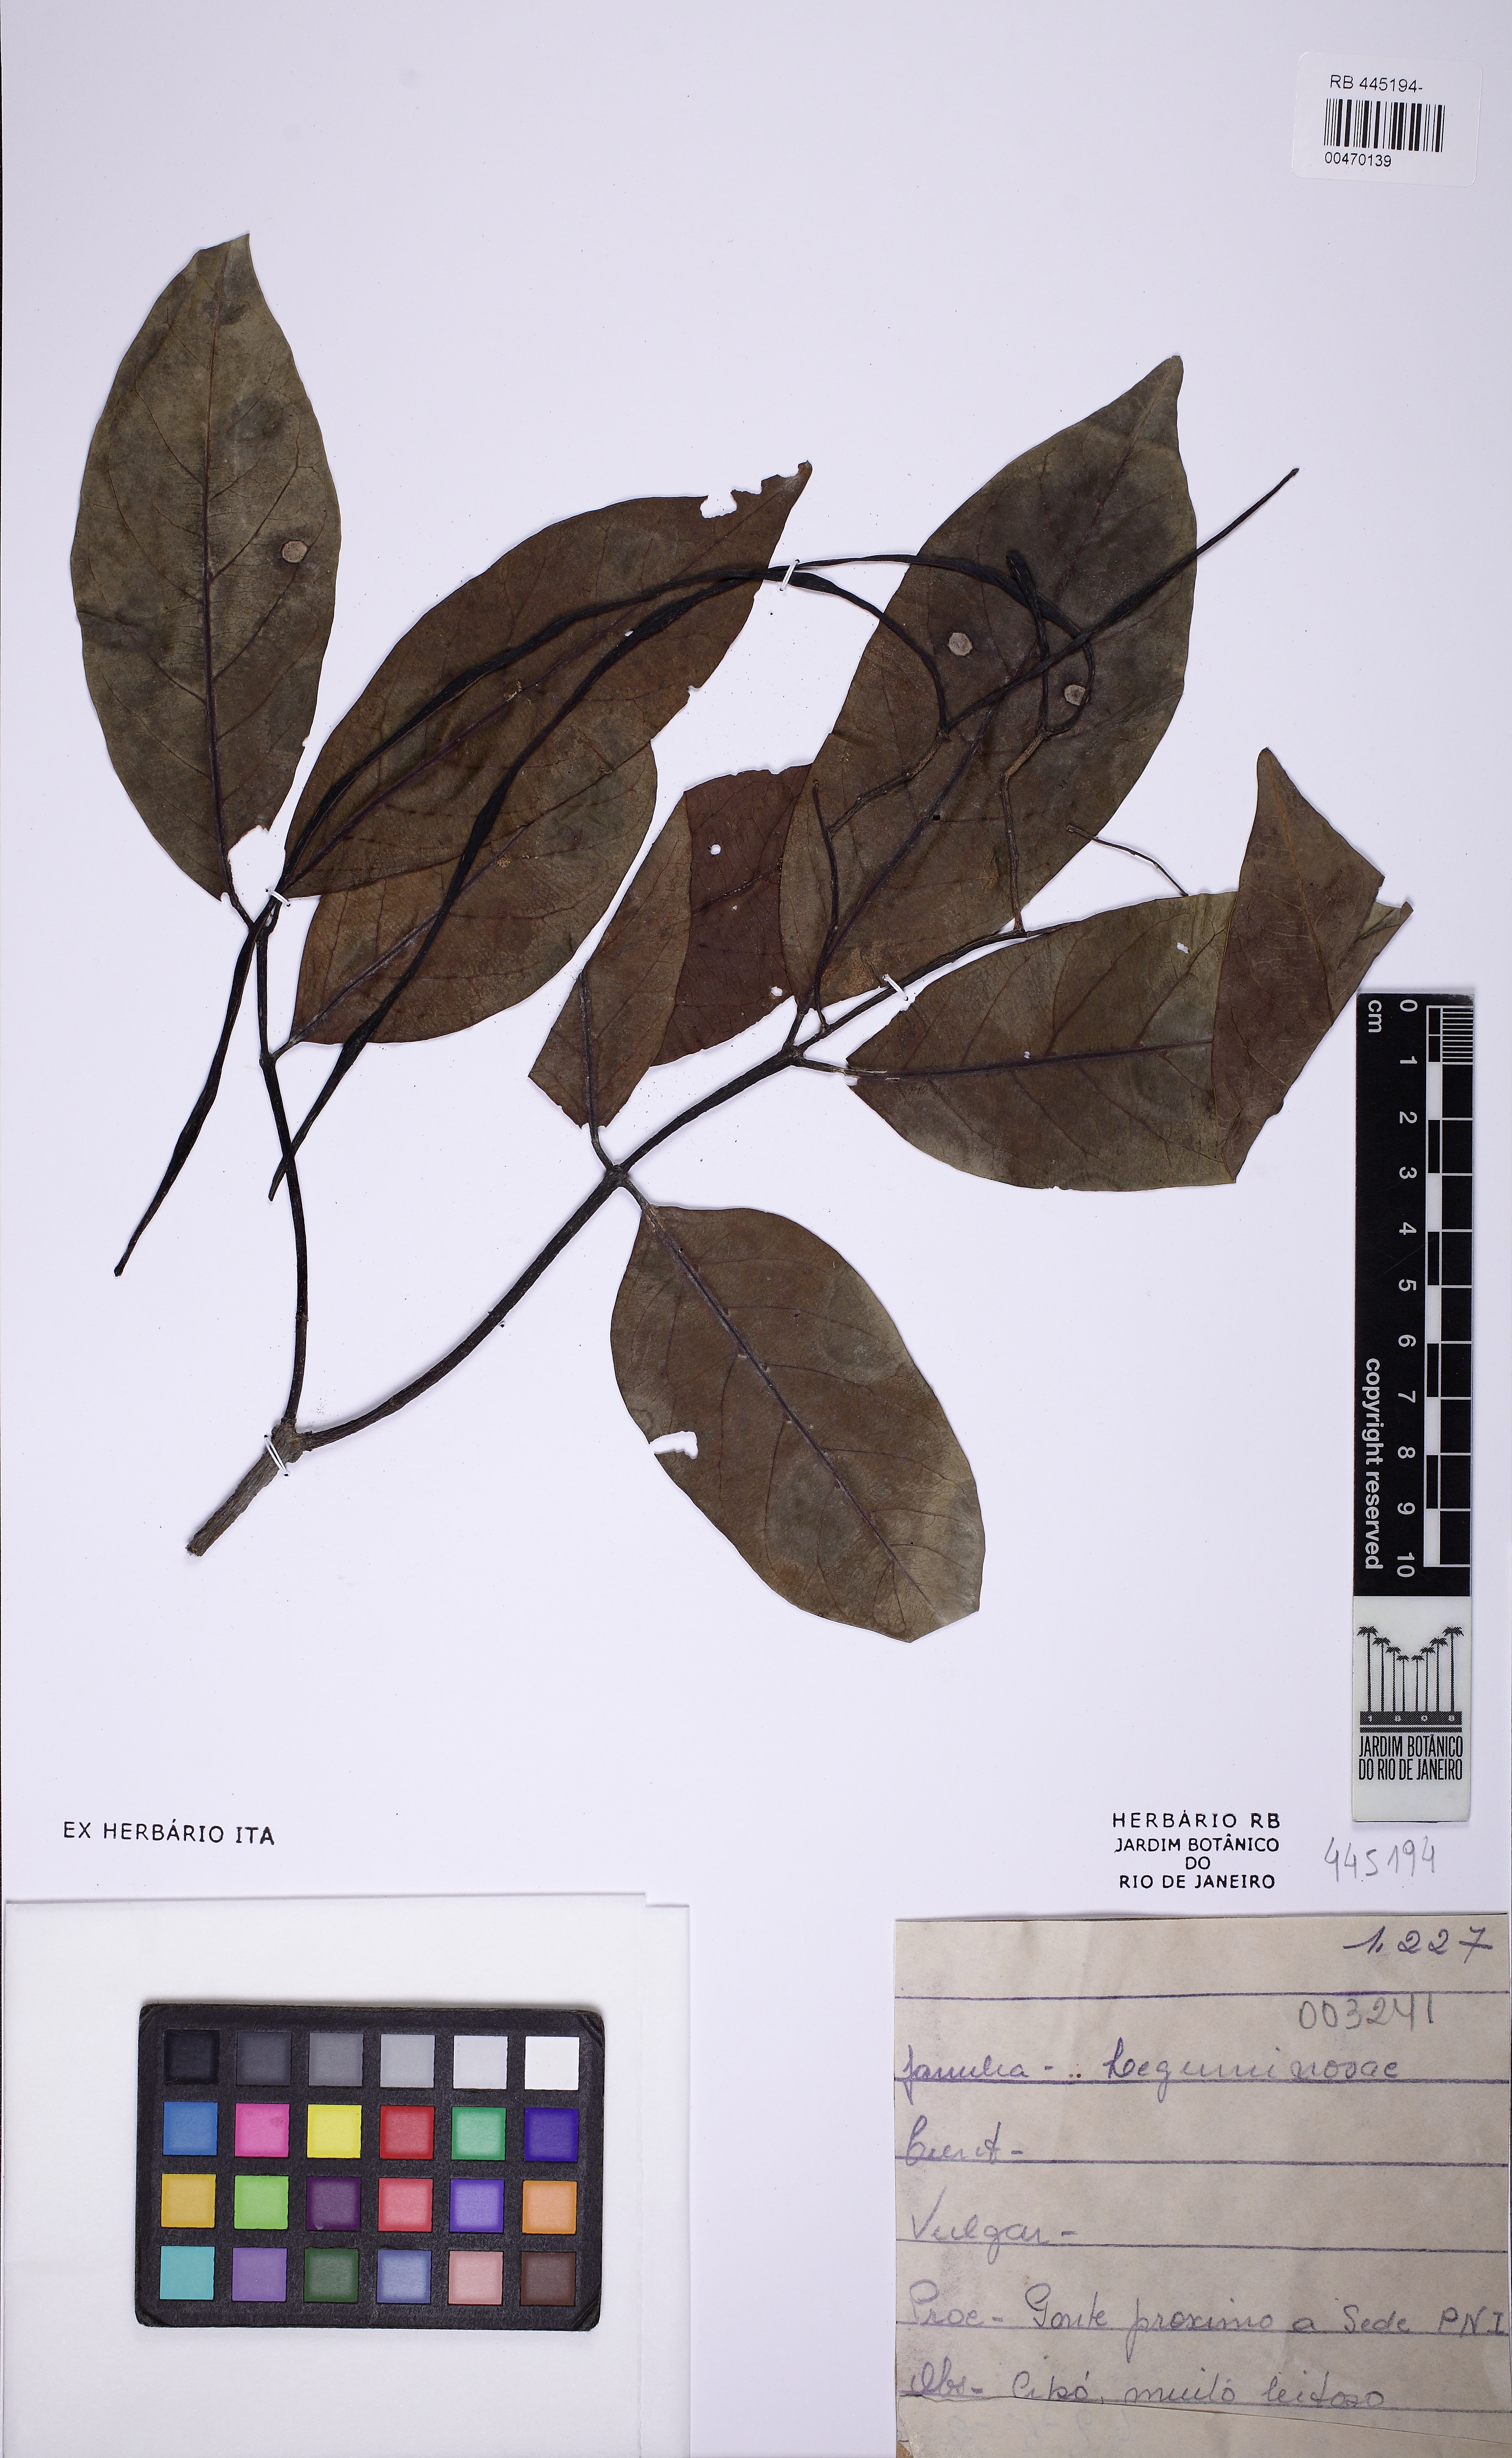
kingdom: Plantae
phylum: Tracheophyta
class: Magnoliopsida
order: Gentianales
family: Apocynaceae
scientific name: Apocynaceae
